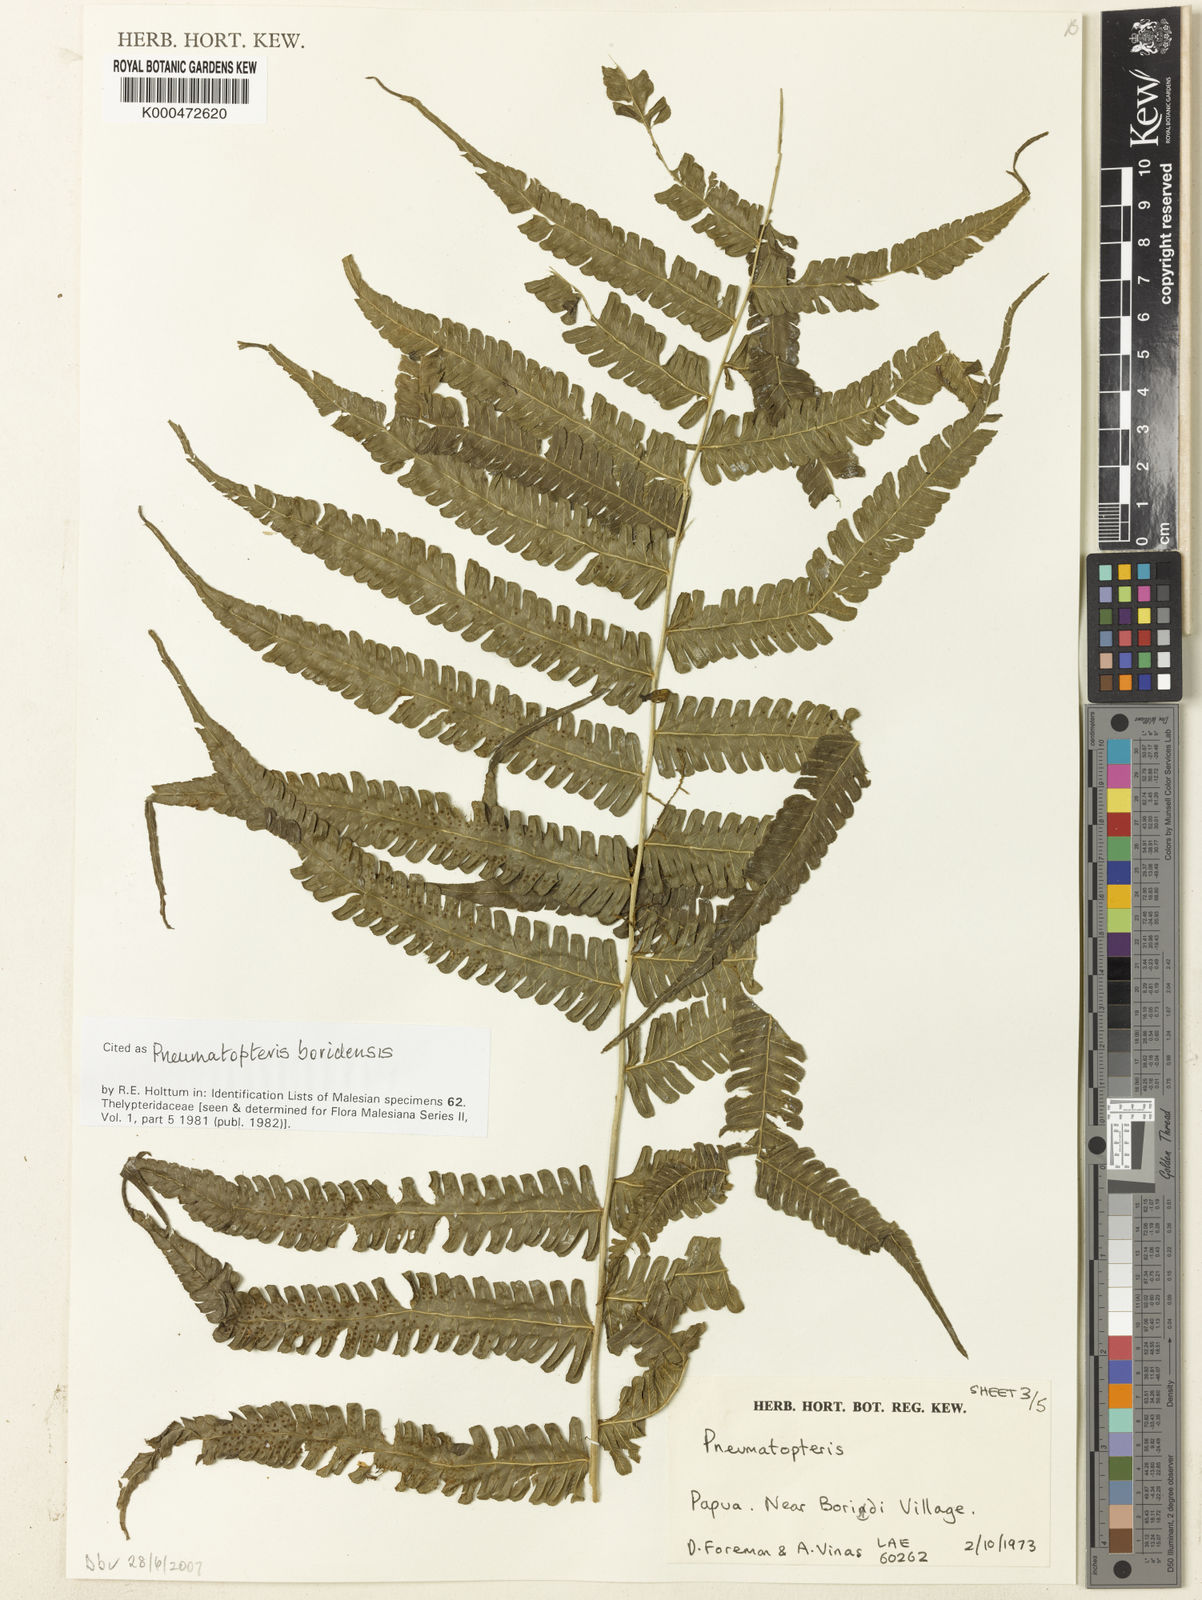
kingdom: Plantae
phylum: Tracheophyta
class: Polypodiopsida
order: Polypodiales
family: Thelypteridaceae
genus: Reholttumia
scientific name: Reholttumia boridensis
